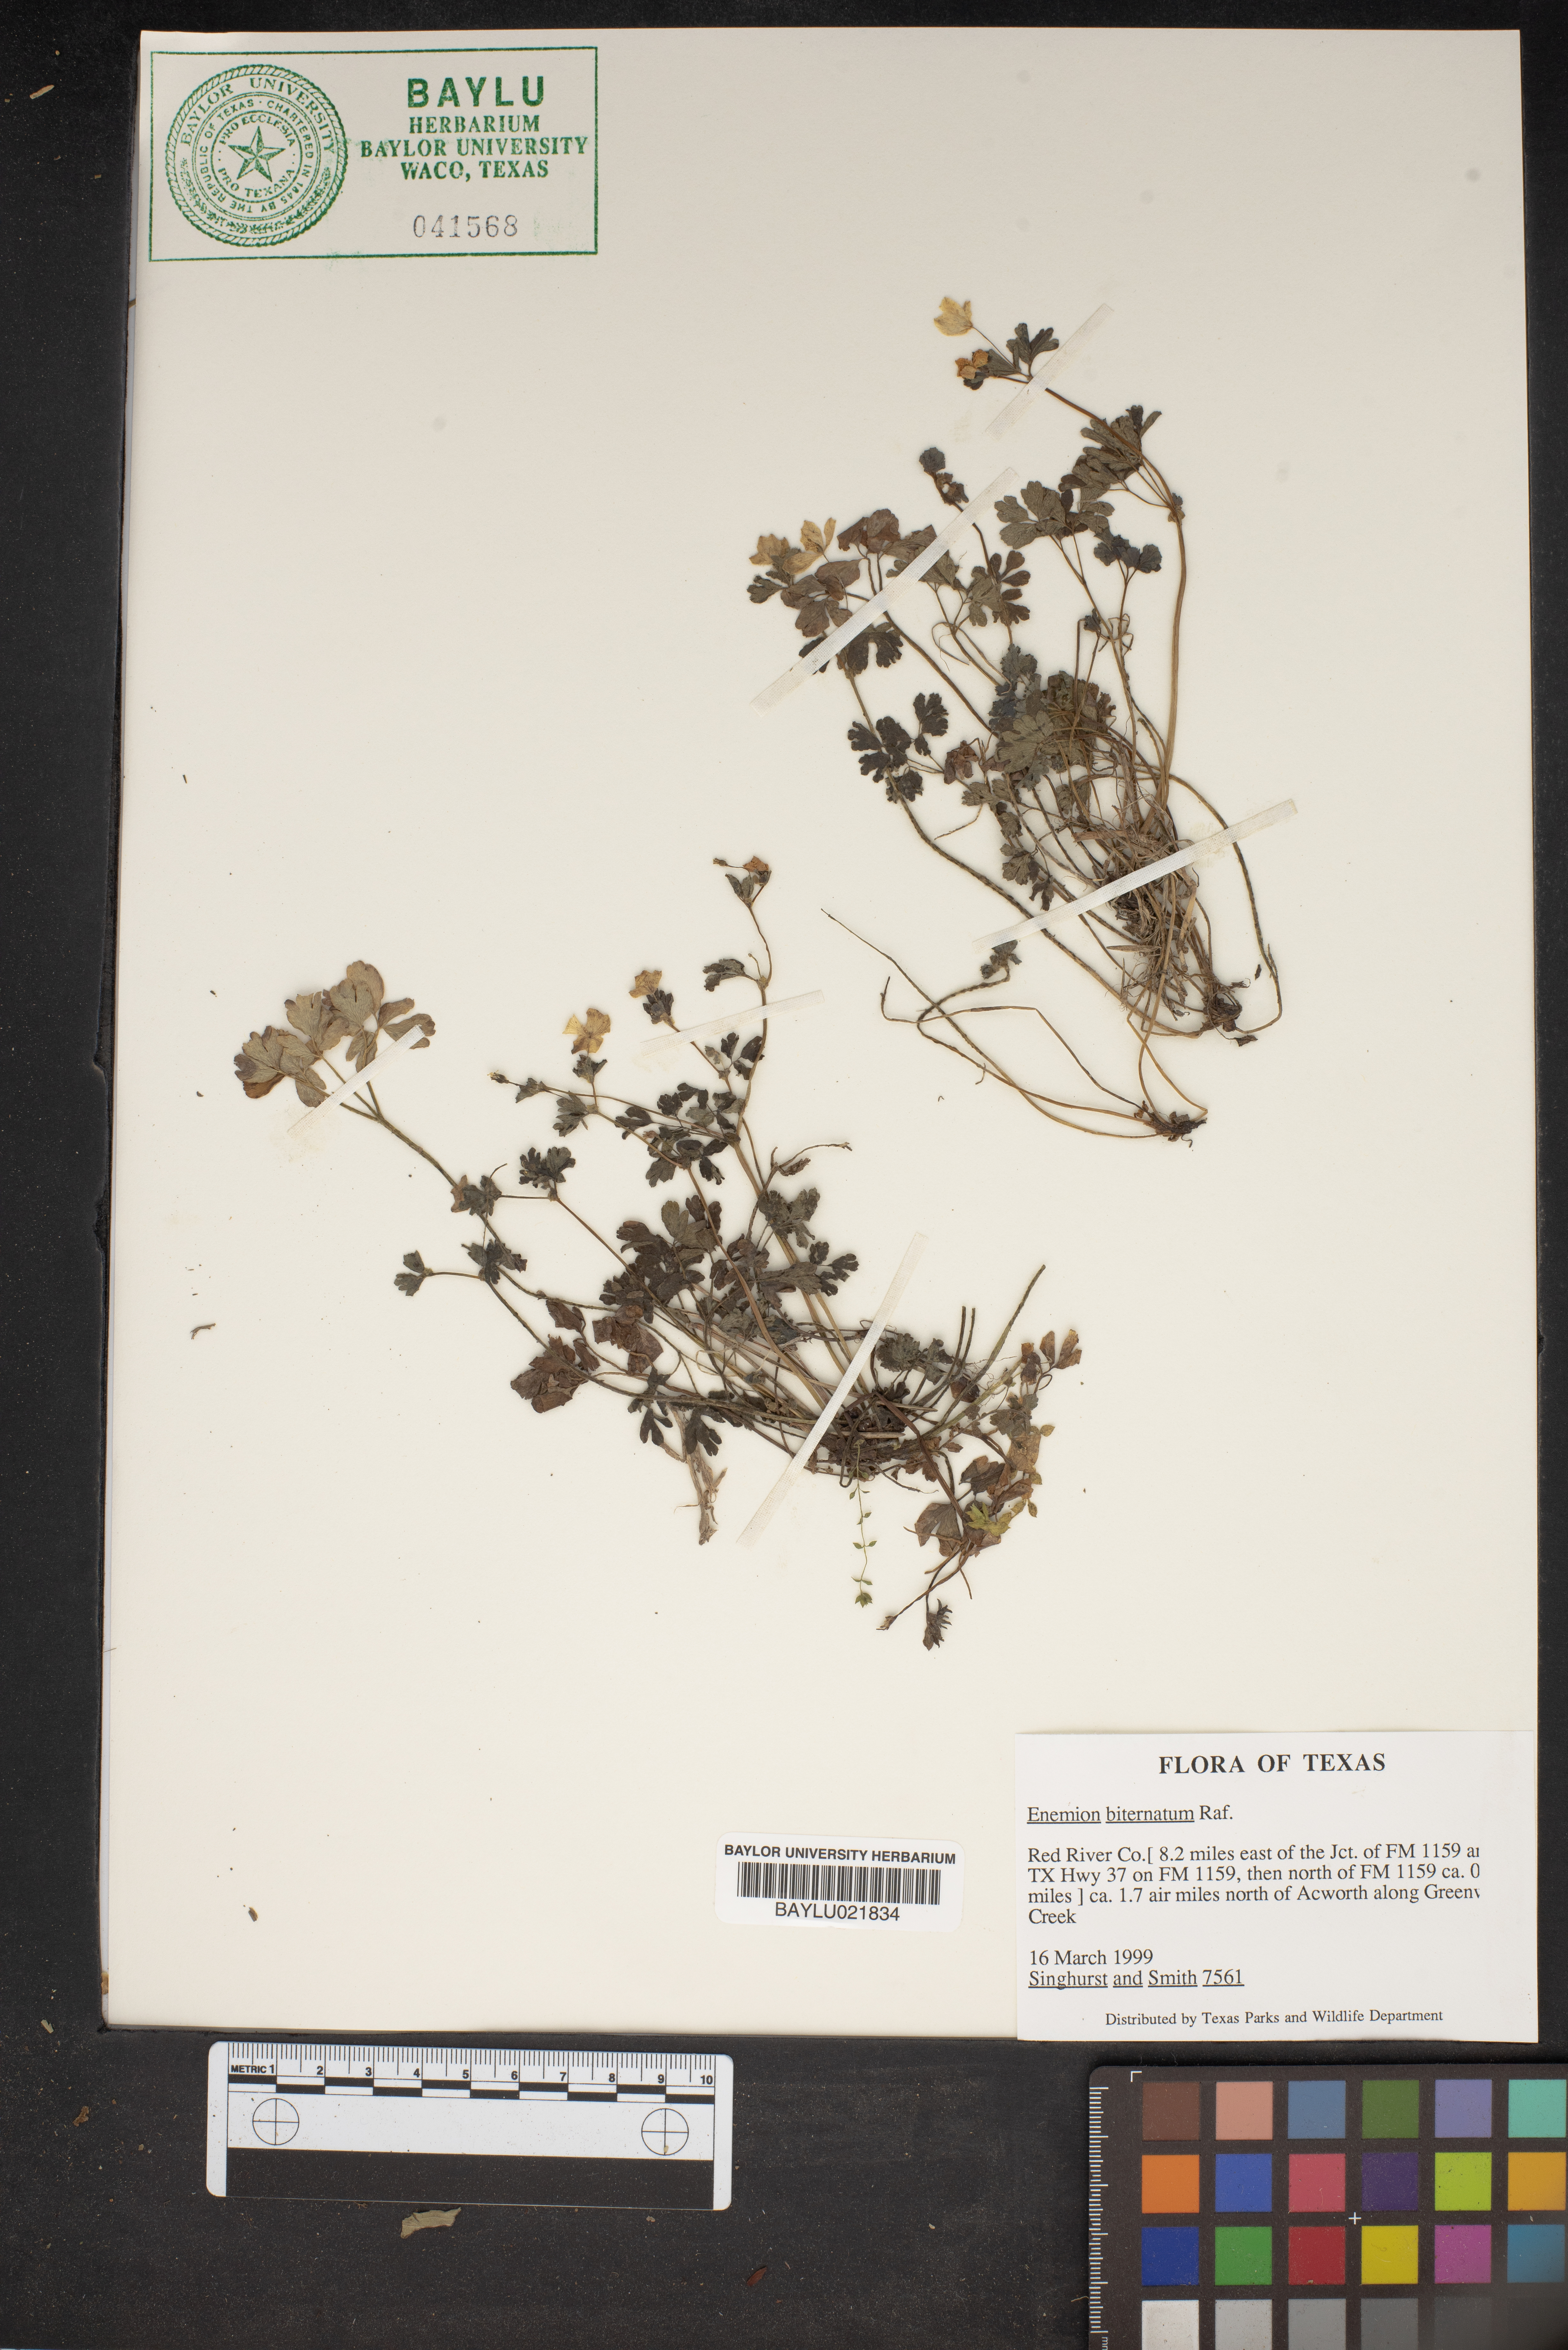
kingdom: Plantae
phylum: Tracheophyta
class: Magnoliopsida
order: Ranunculales
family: Ranunculaceae
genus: Enemion
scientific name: Enemion biternatum
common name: Eastern false rue-anemone
